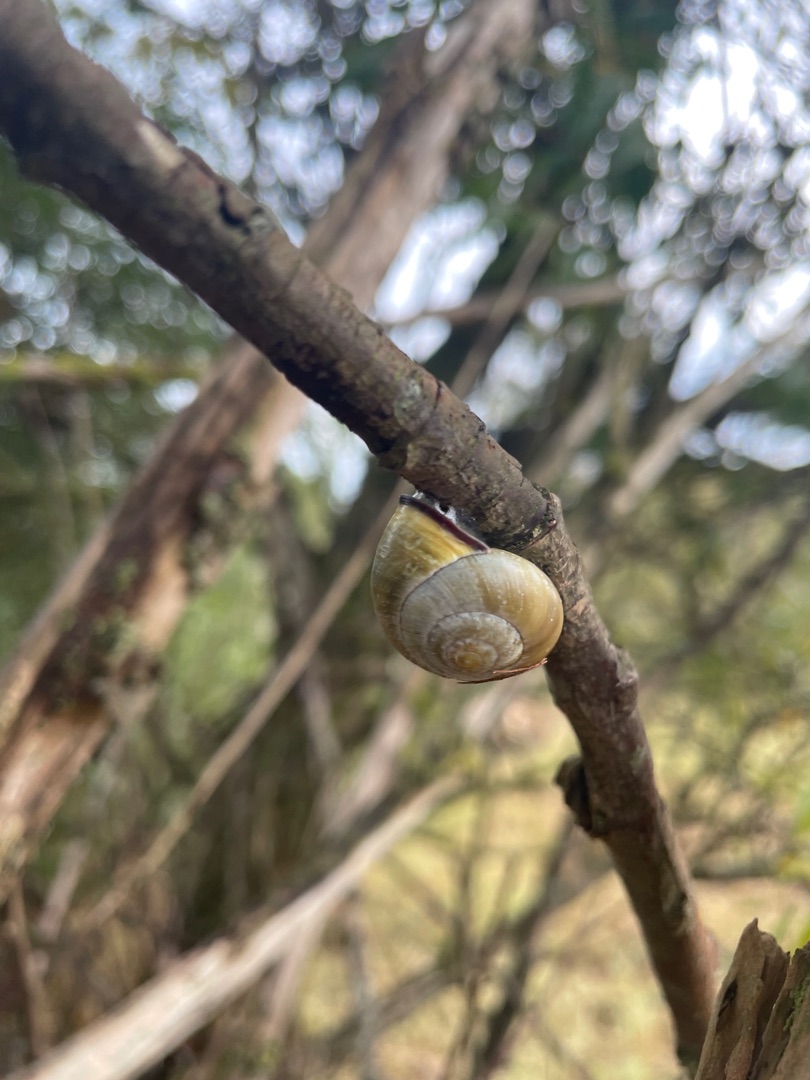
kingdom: Animalia
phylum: Mollusca
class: Gastropoda
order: Stylommatophora
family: Helicidae
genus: Cepaea
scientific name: Cepaea nemoralis
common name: Lundsnegl
